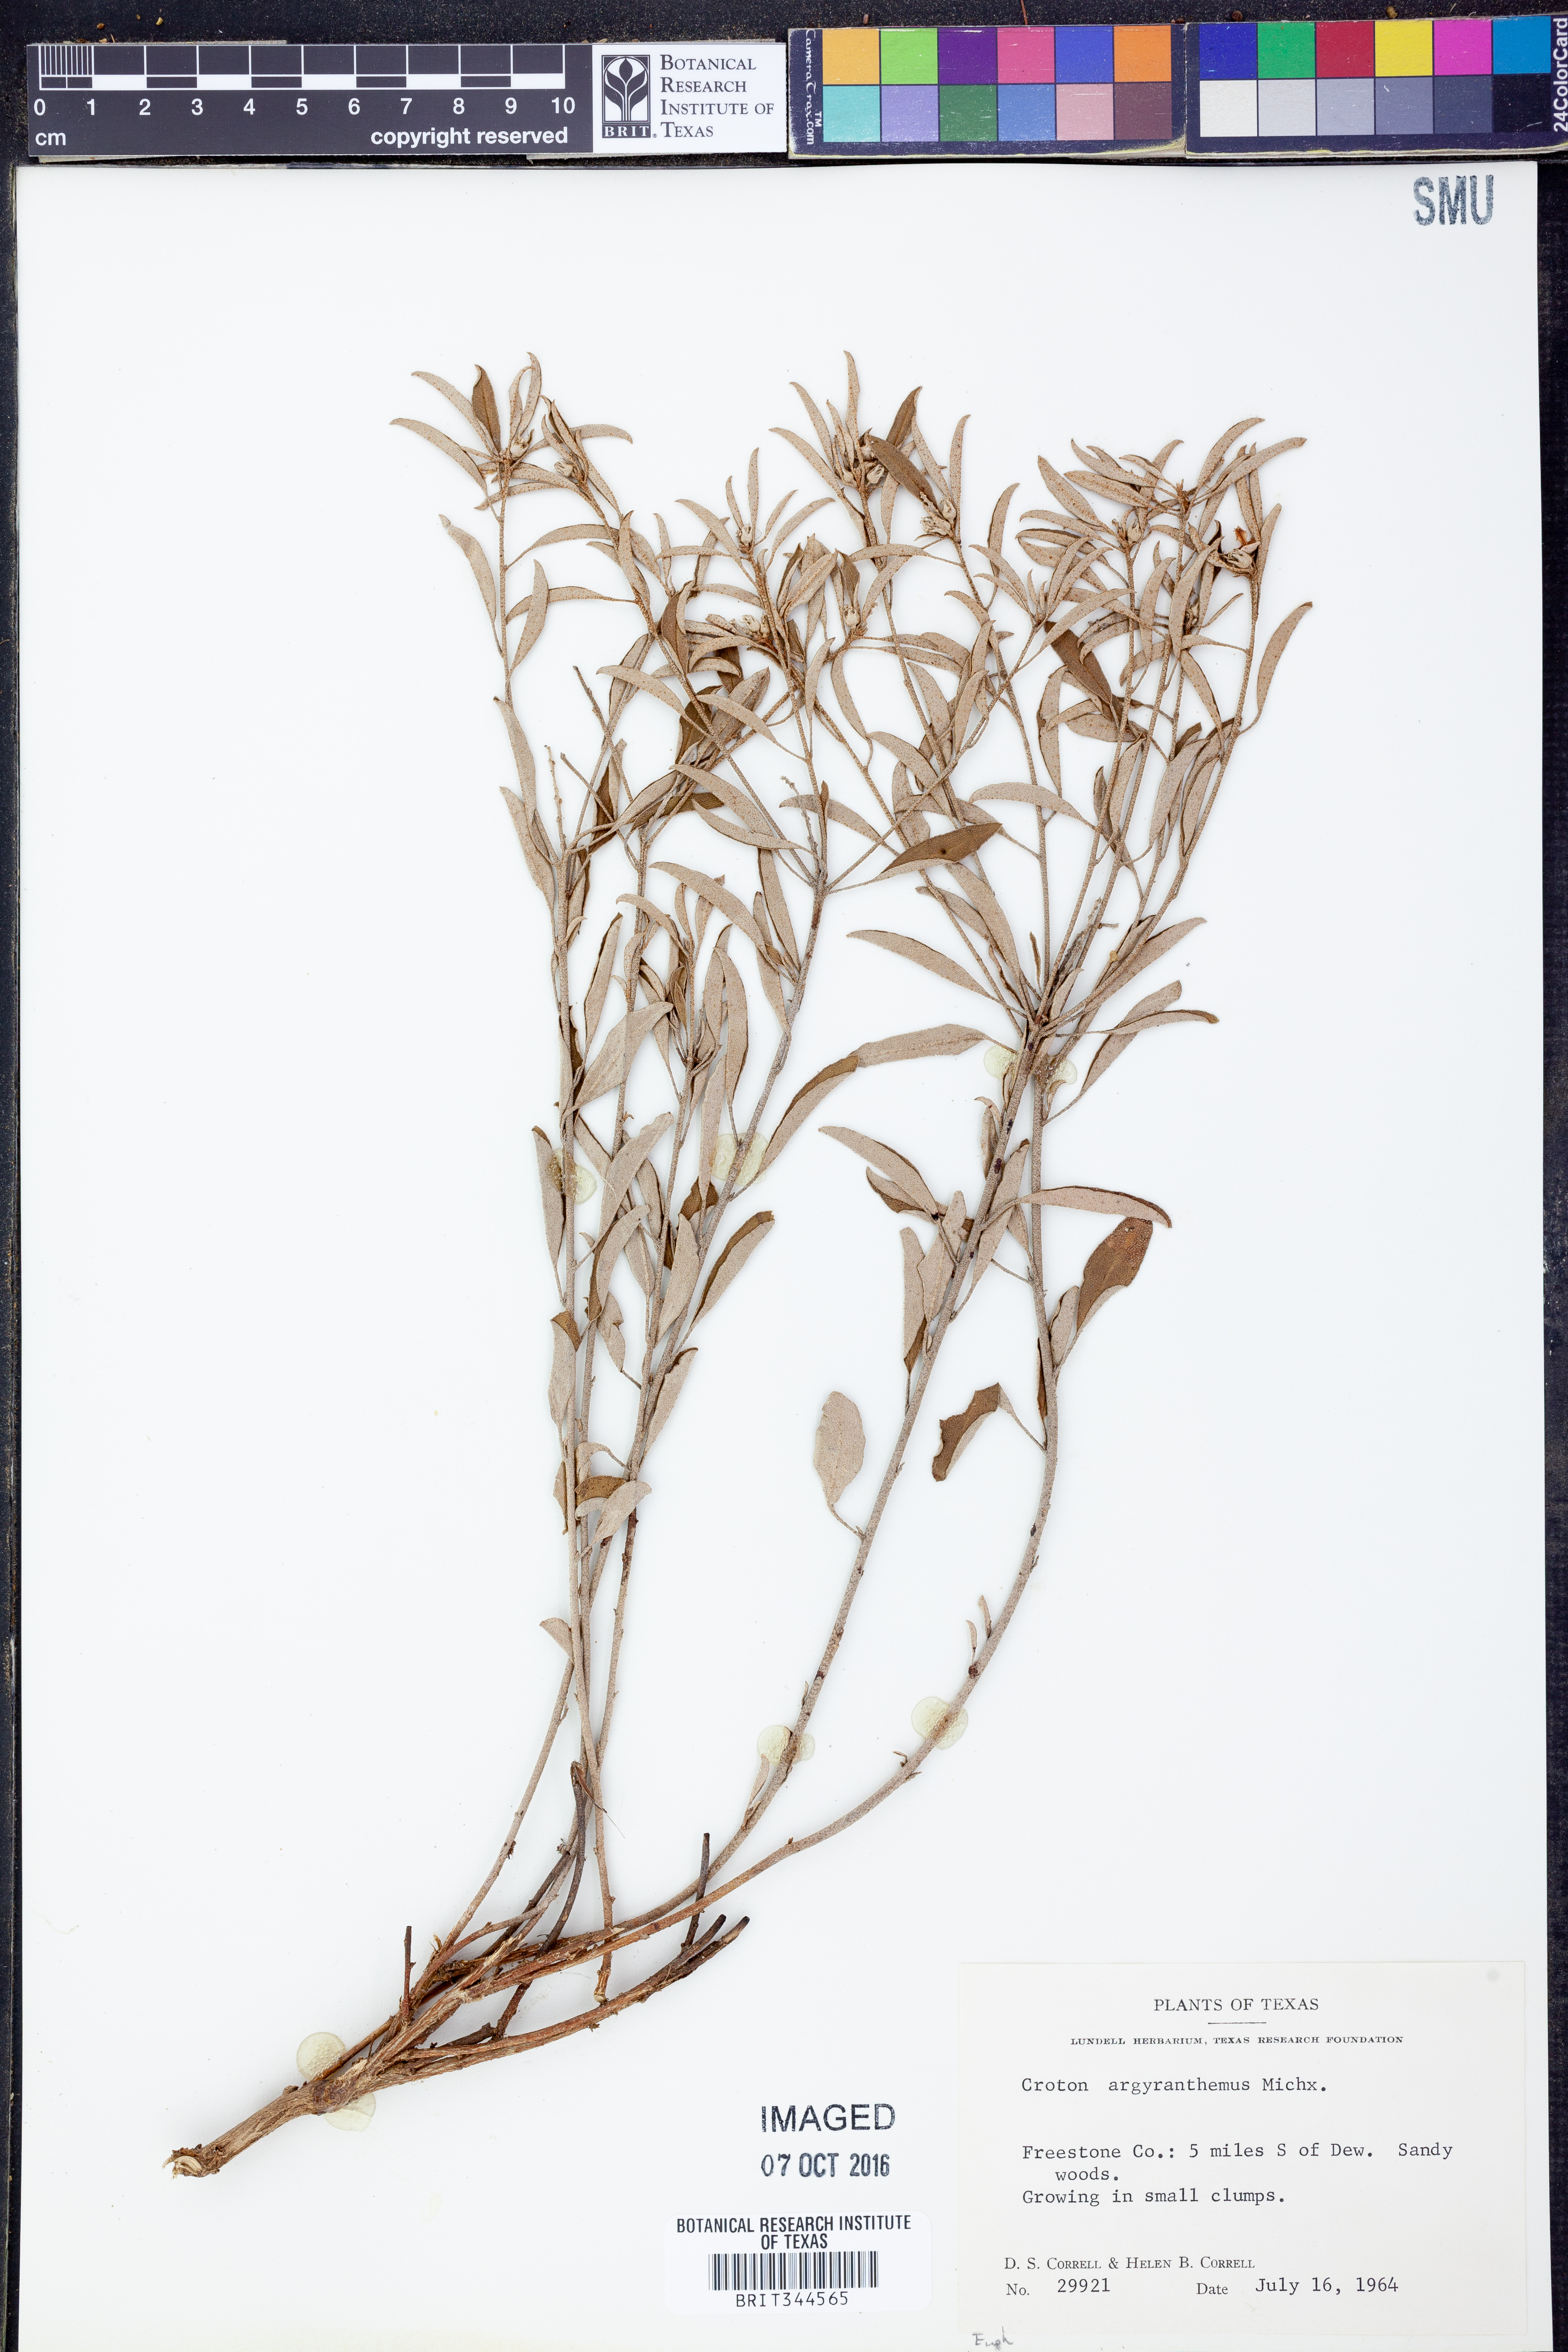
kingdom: Plantae
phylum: Tracheophyta
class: Magnoliopsida
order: Malpighiales
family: Euphorbiaceae
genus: Croton
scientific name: Croton argyranthemus
